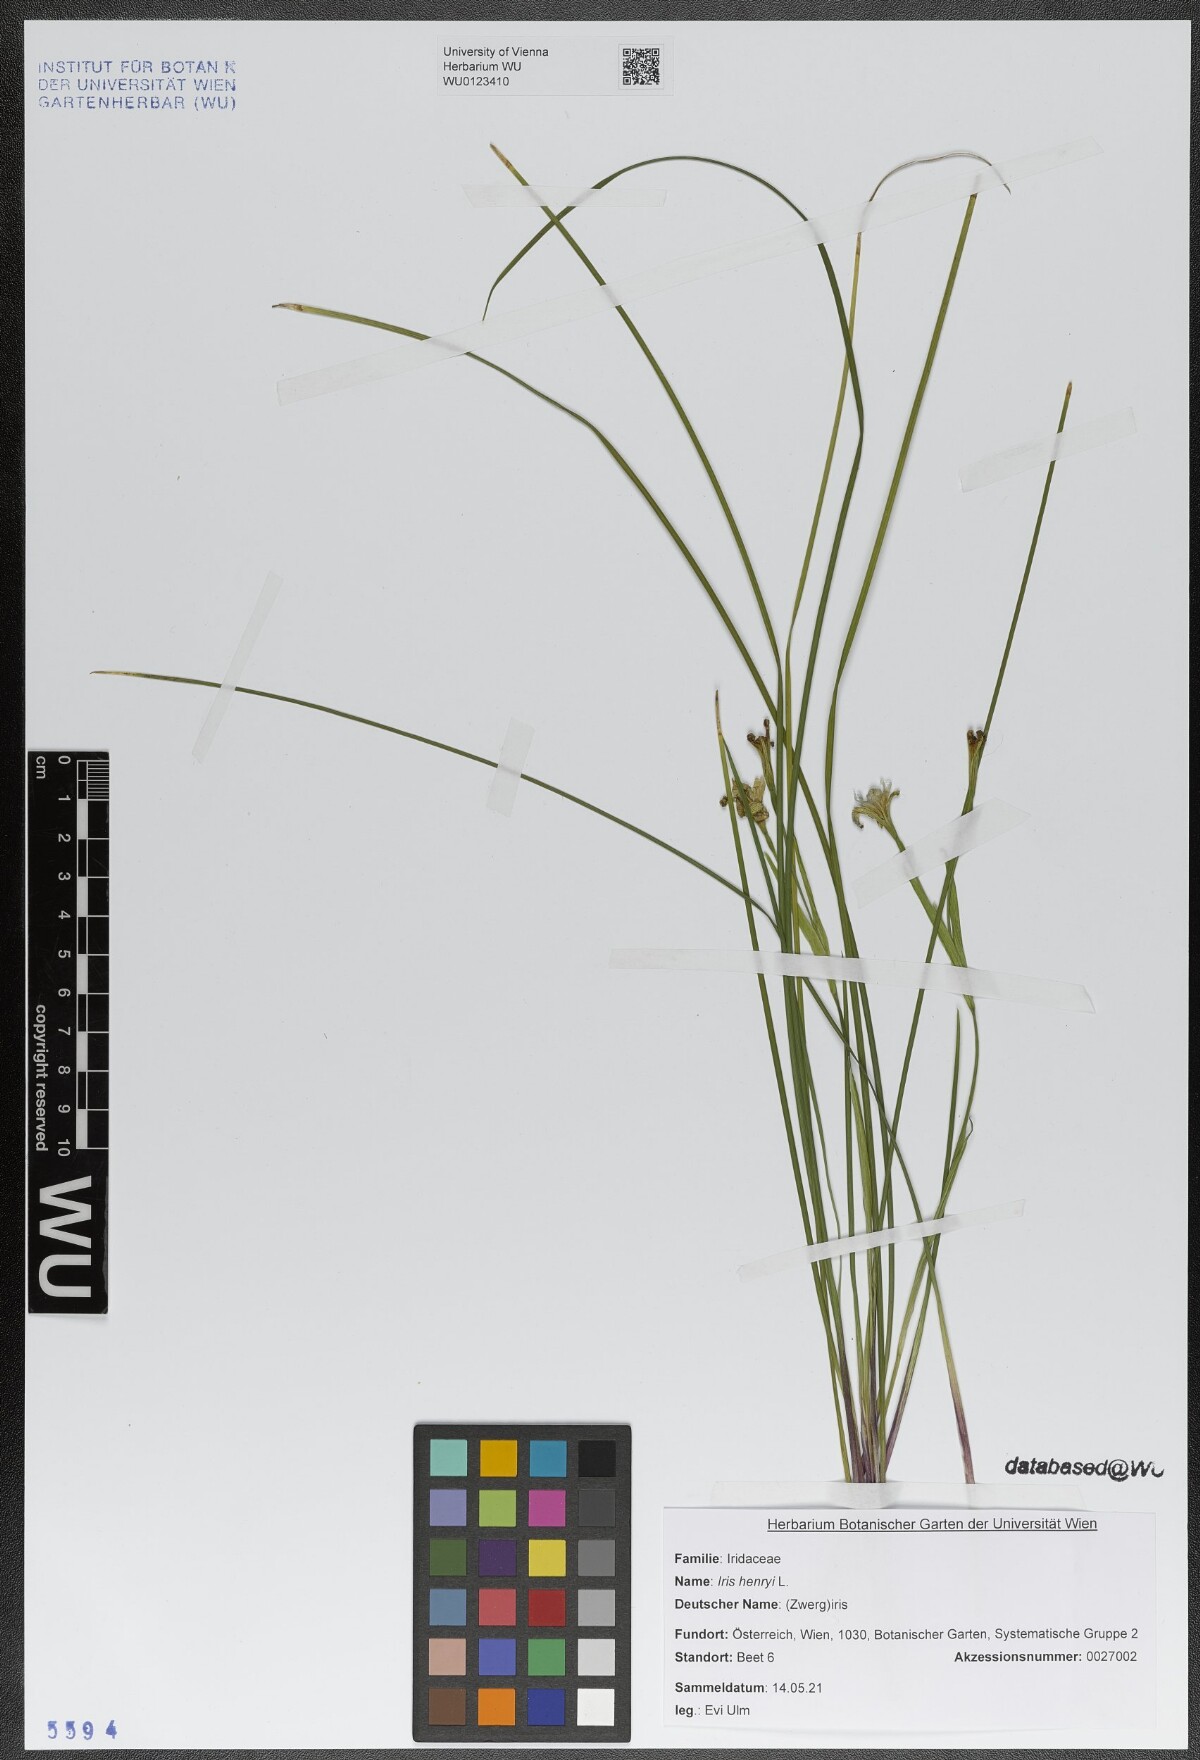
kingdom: Plantae
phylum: Tracheophyta
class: Liliopsida
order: Asparagales
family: Iridaceae
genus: Iris
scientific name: Iris henryi
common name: Long-pedicel iris
